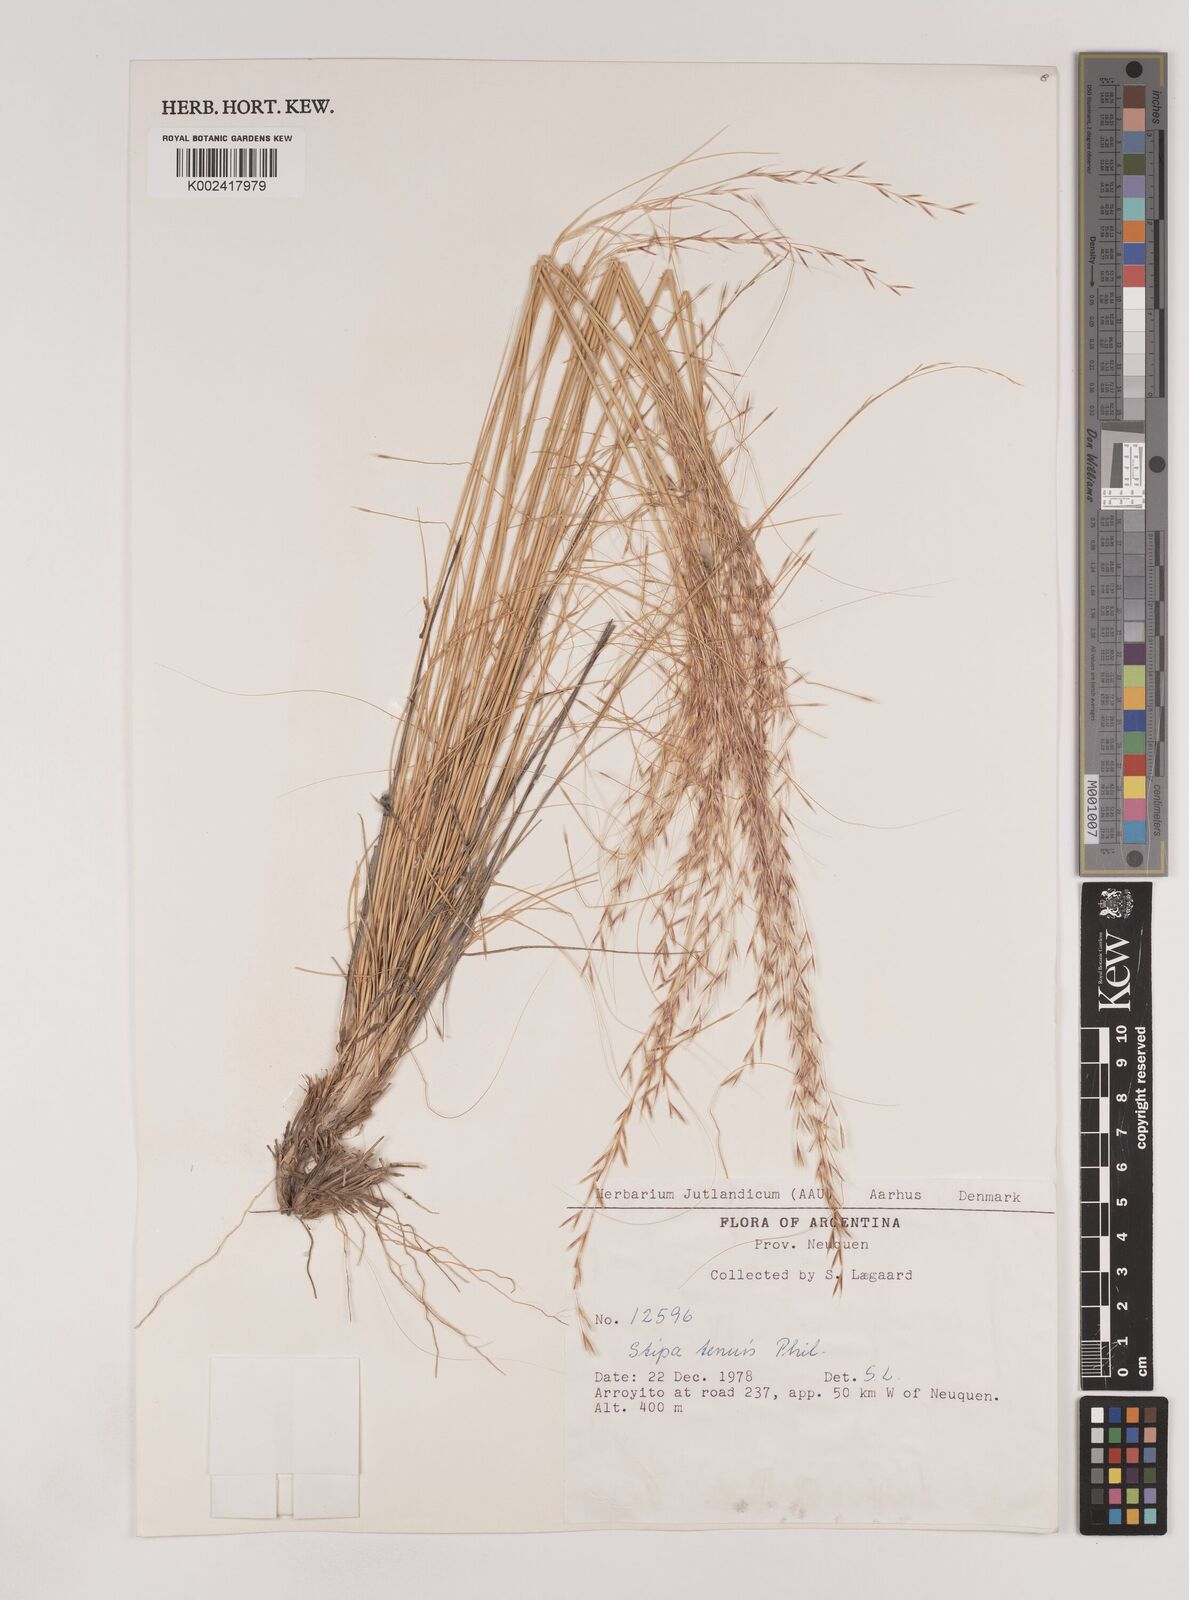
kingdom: Plantae
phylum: Tracheophyta
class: Liliopsida
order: Poales
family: Poaceae
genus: Nassella
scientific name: Nassella tenuis
